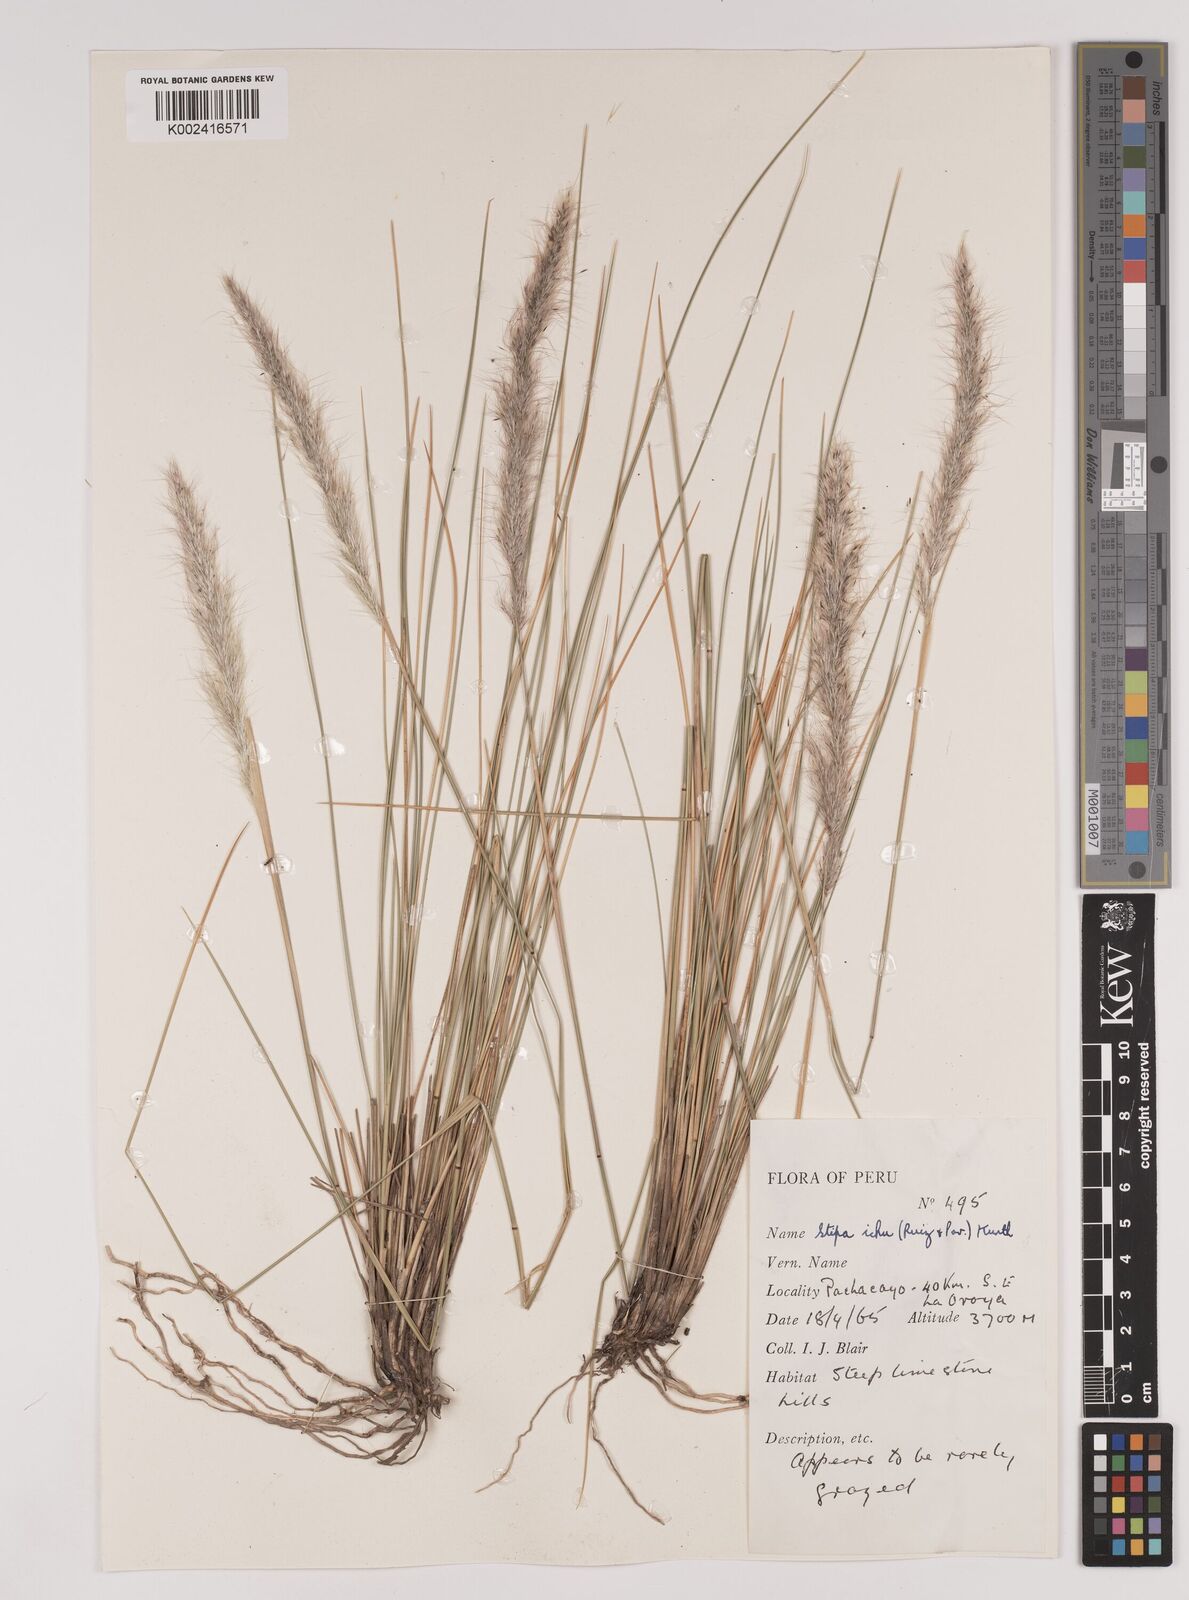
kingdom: Plantae
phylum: Tracheophyta
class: Liliopsida
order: Poales
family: Poaceae
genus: Jarava
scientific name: Jarava leptostachya
